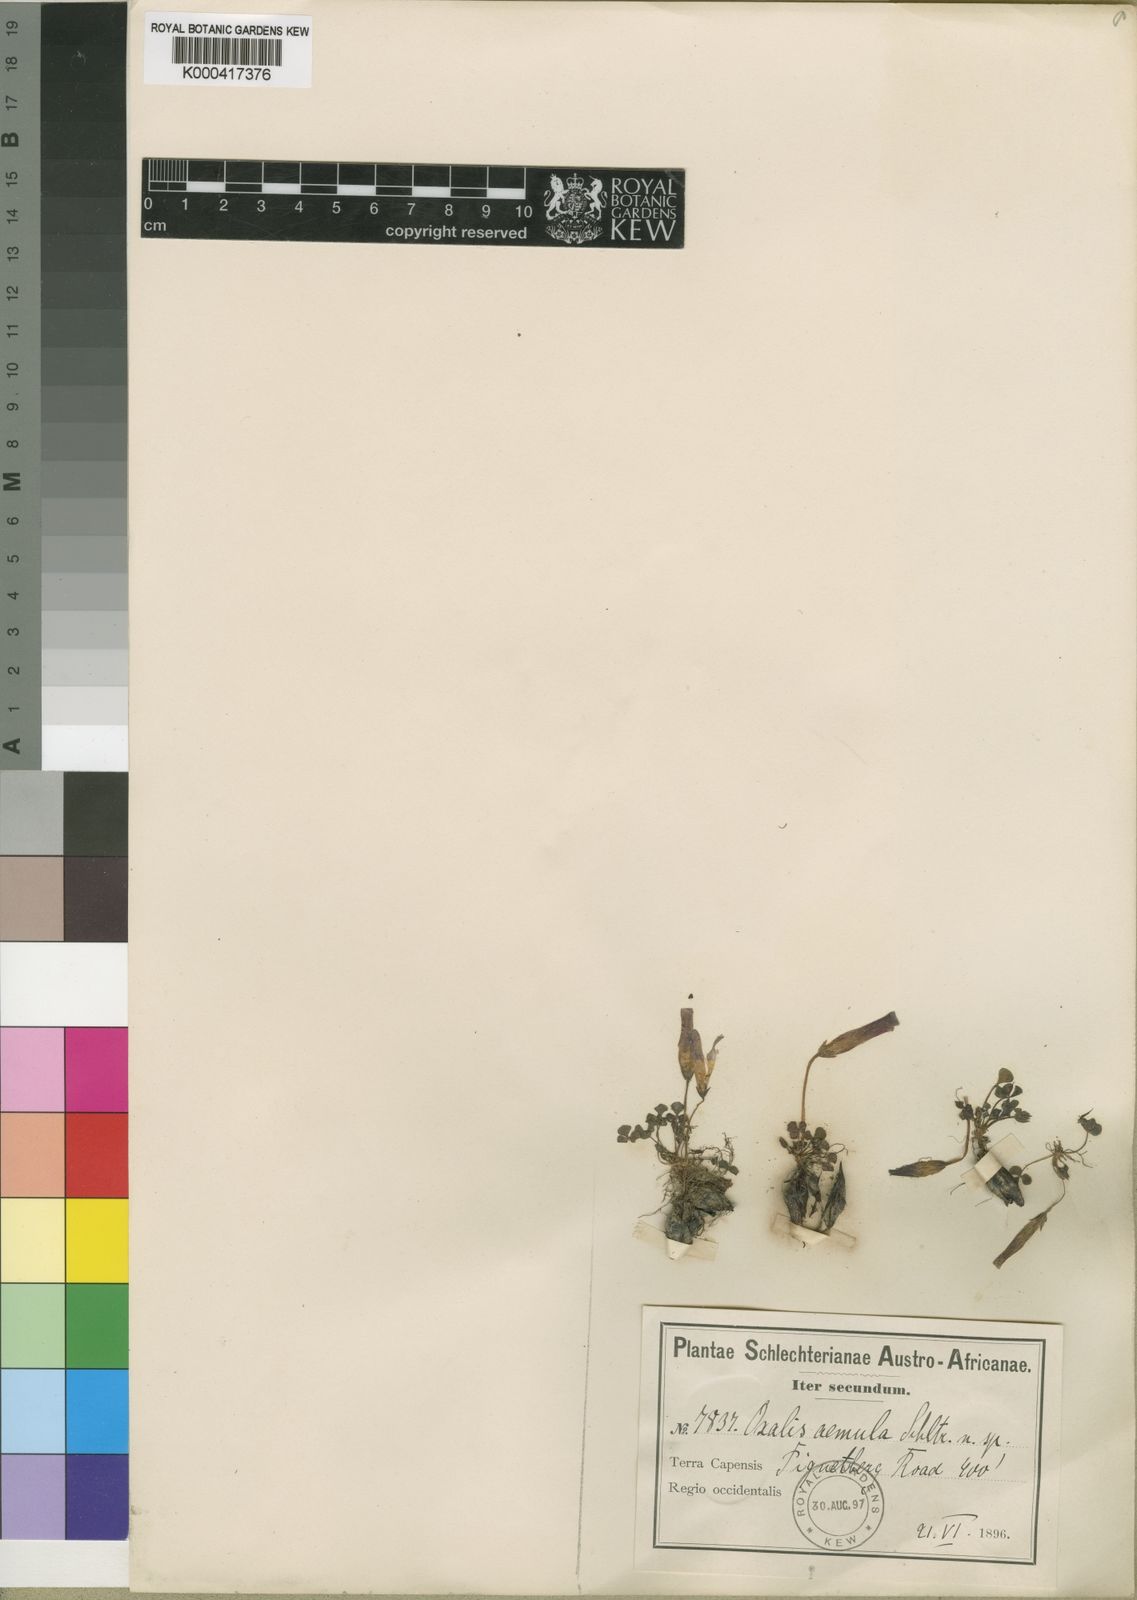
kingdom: Plantae
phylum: Tracheophyta
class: Magnoliopsida
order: Oxalidales
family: Oxalidaceae
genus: Oxalis
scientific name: Oxalis purpurea
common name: Purple woodsorrel
